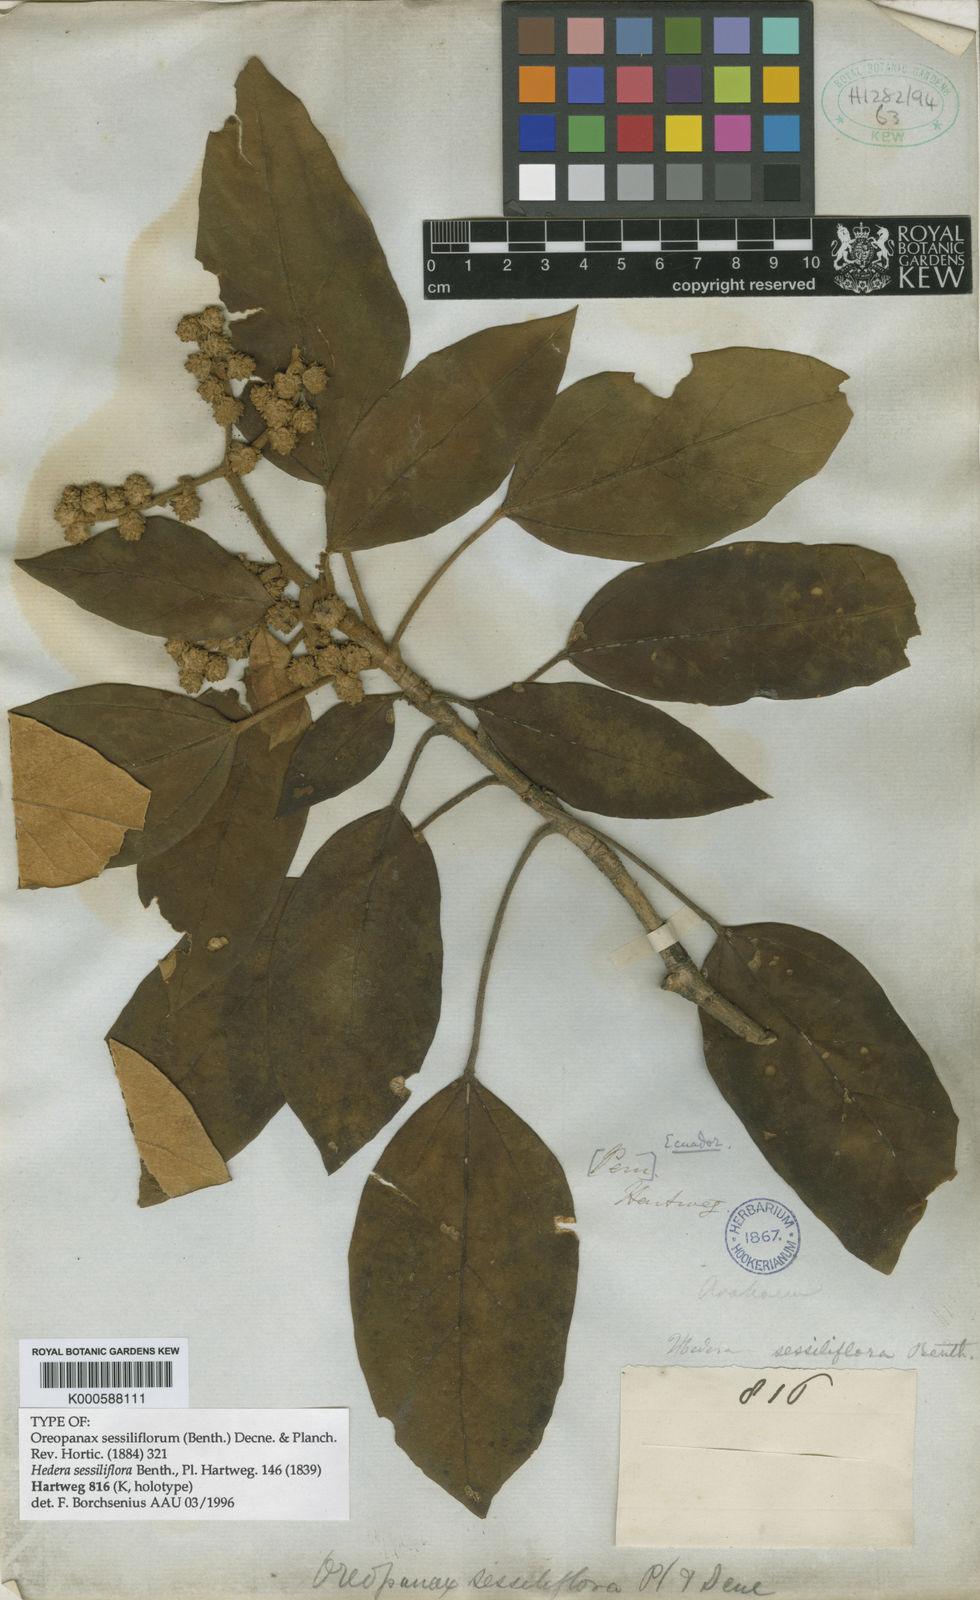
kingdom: Plantae
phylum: Tracheophyta
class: Magnoliopsida
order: Apiales
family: Araliaceae
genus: Oreopanax
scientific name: Oreopanax sessiliflorus
